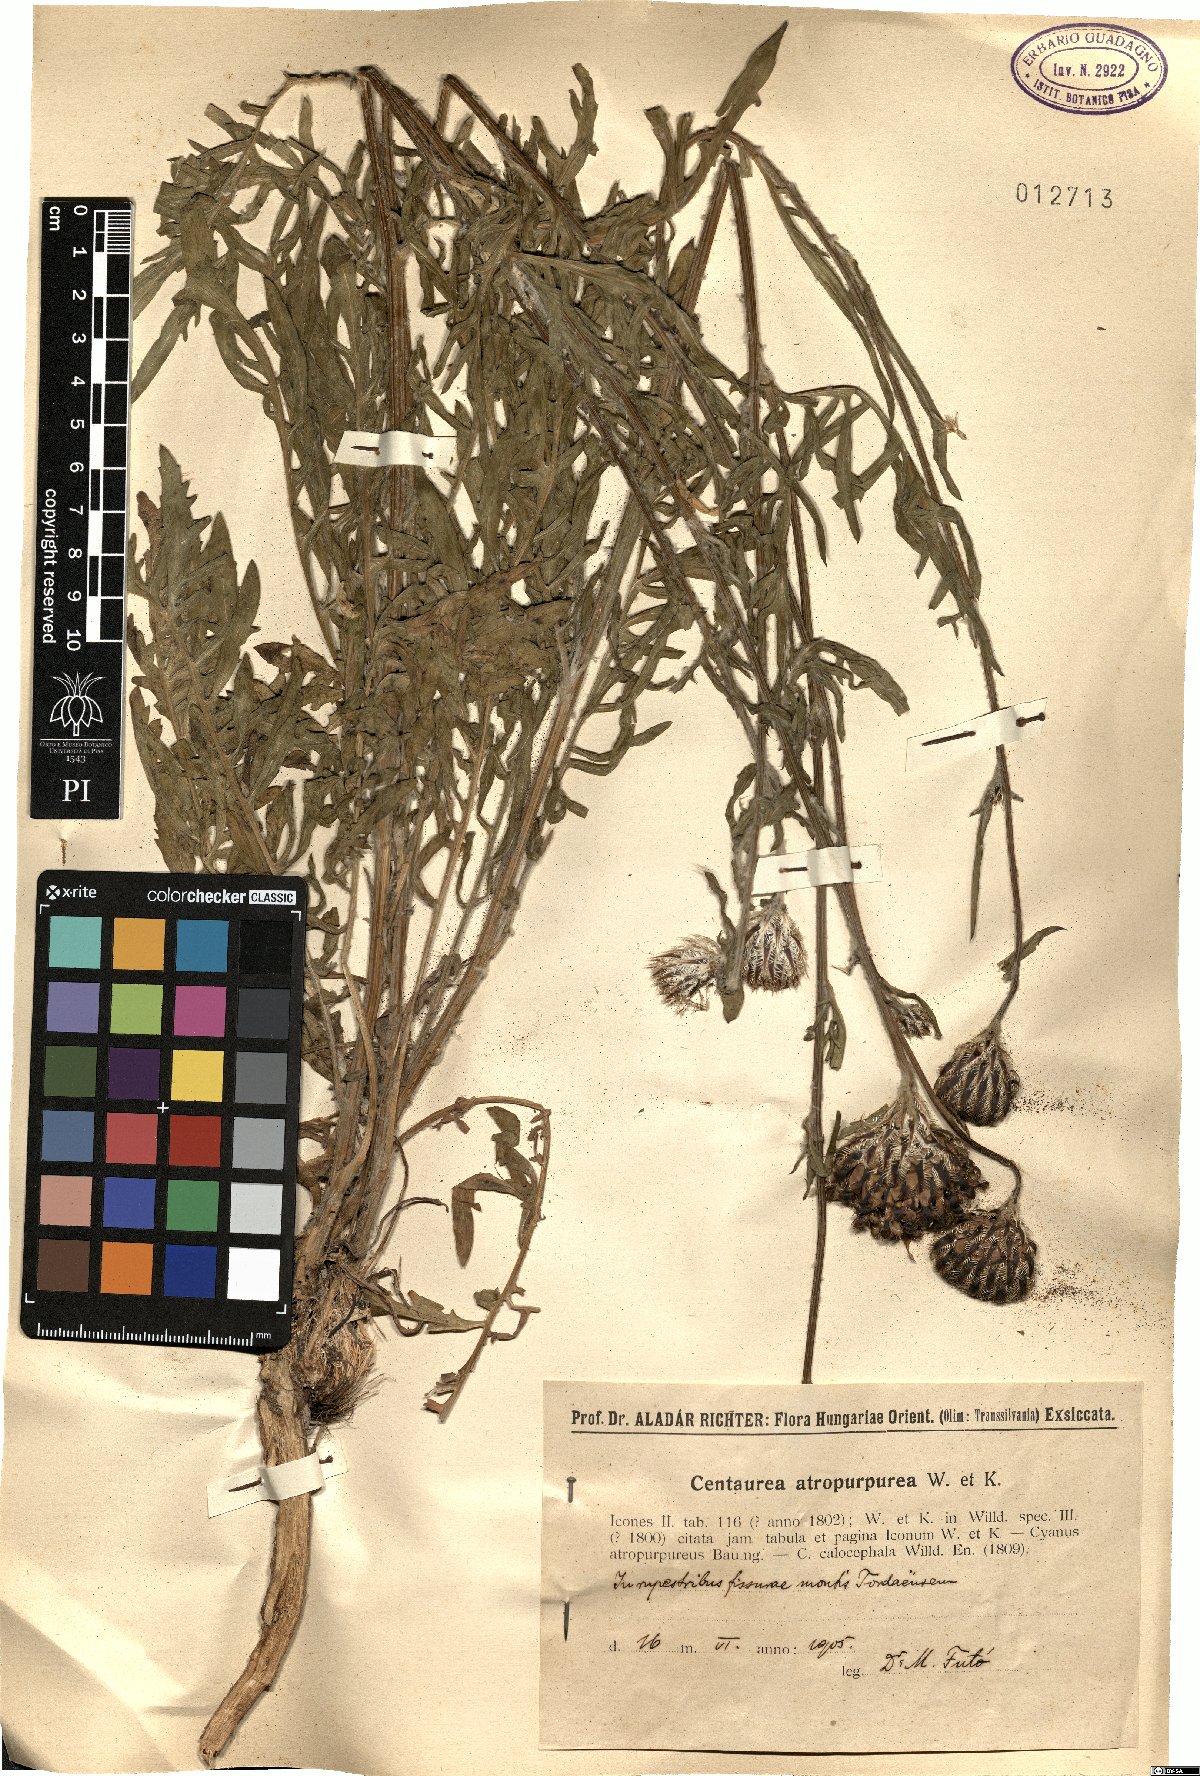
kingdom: Plantae
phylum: Tracheophyta
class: Magnoliopsida
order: Asterales
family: Asteraceae
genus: Centaurea
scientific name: Centaurea calocephala
